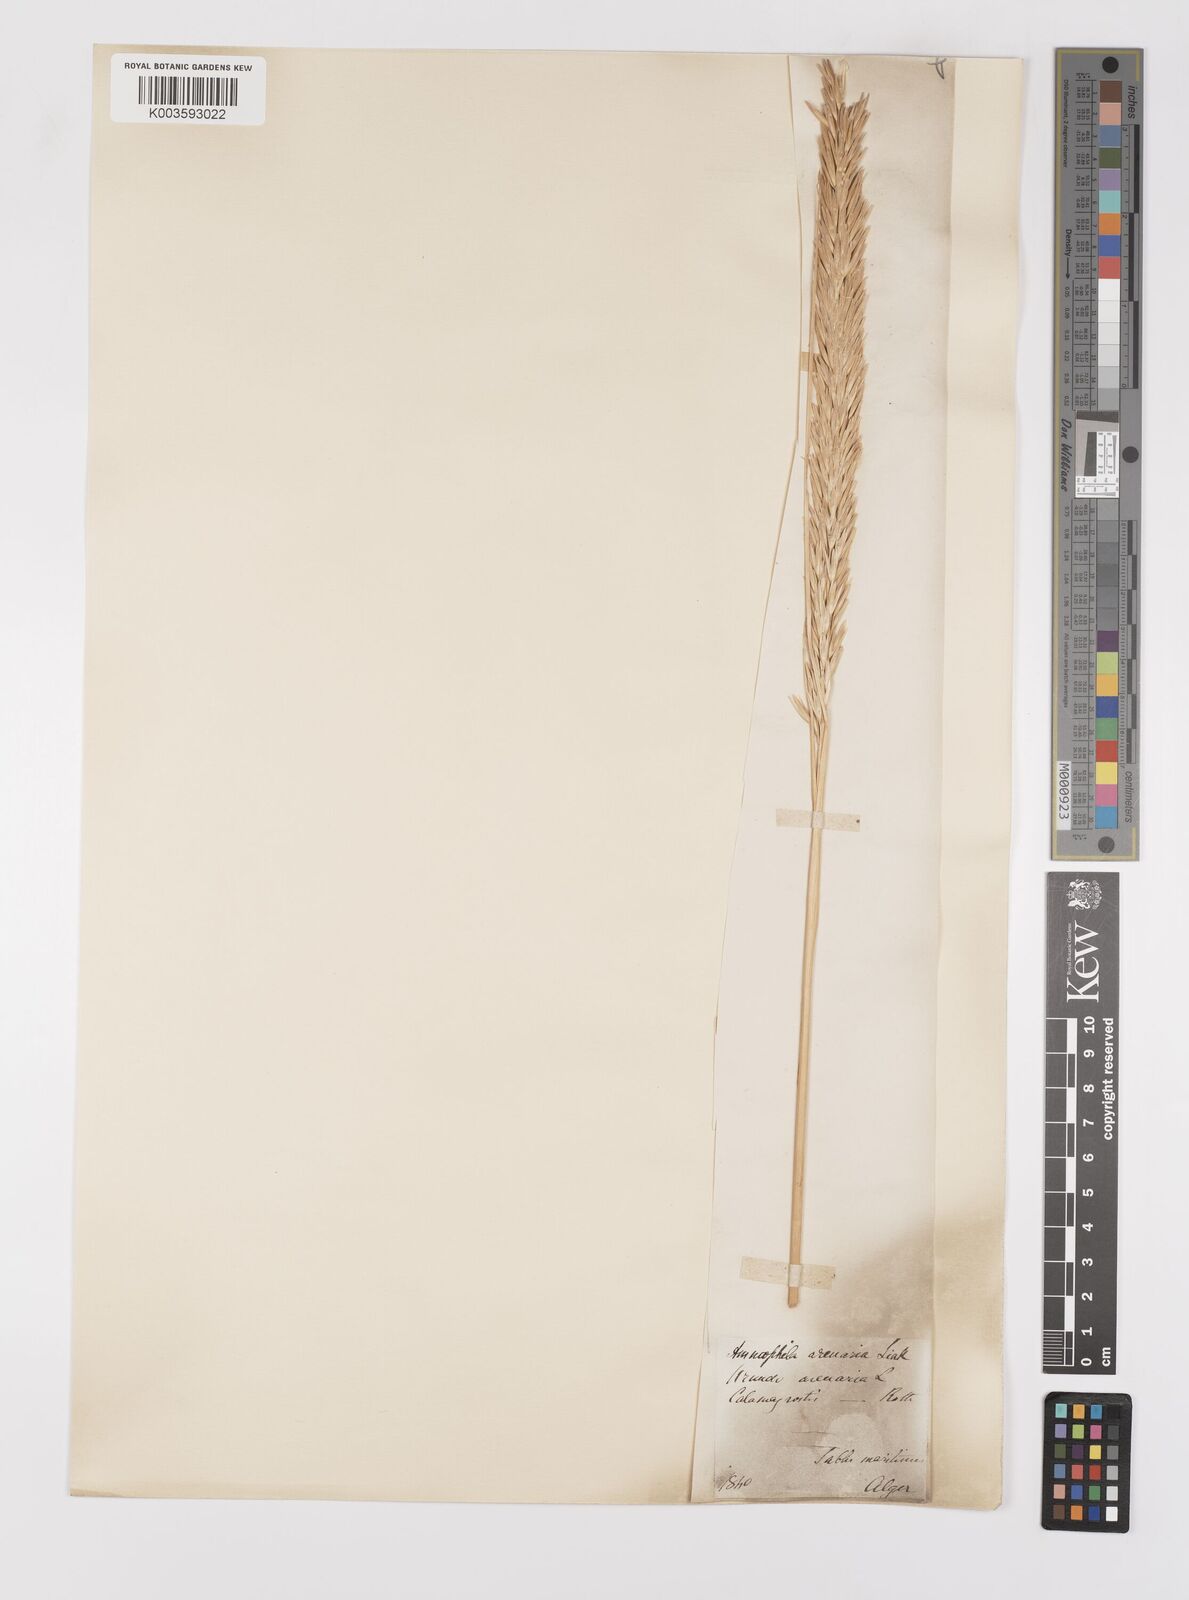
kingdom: Plantae
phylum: Tracheophyta
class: Liliopsida
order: Poales
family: Poaceae
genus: Calamagrostis
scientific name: Calamagrostis arenaria
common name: European beachgrass
